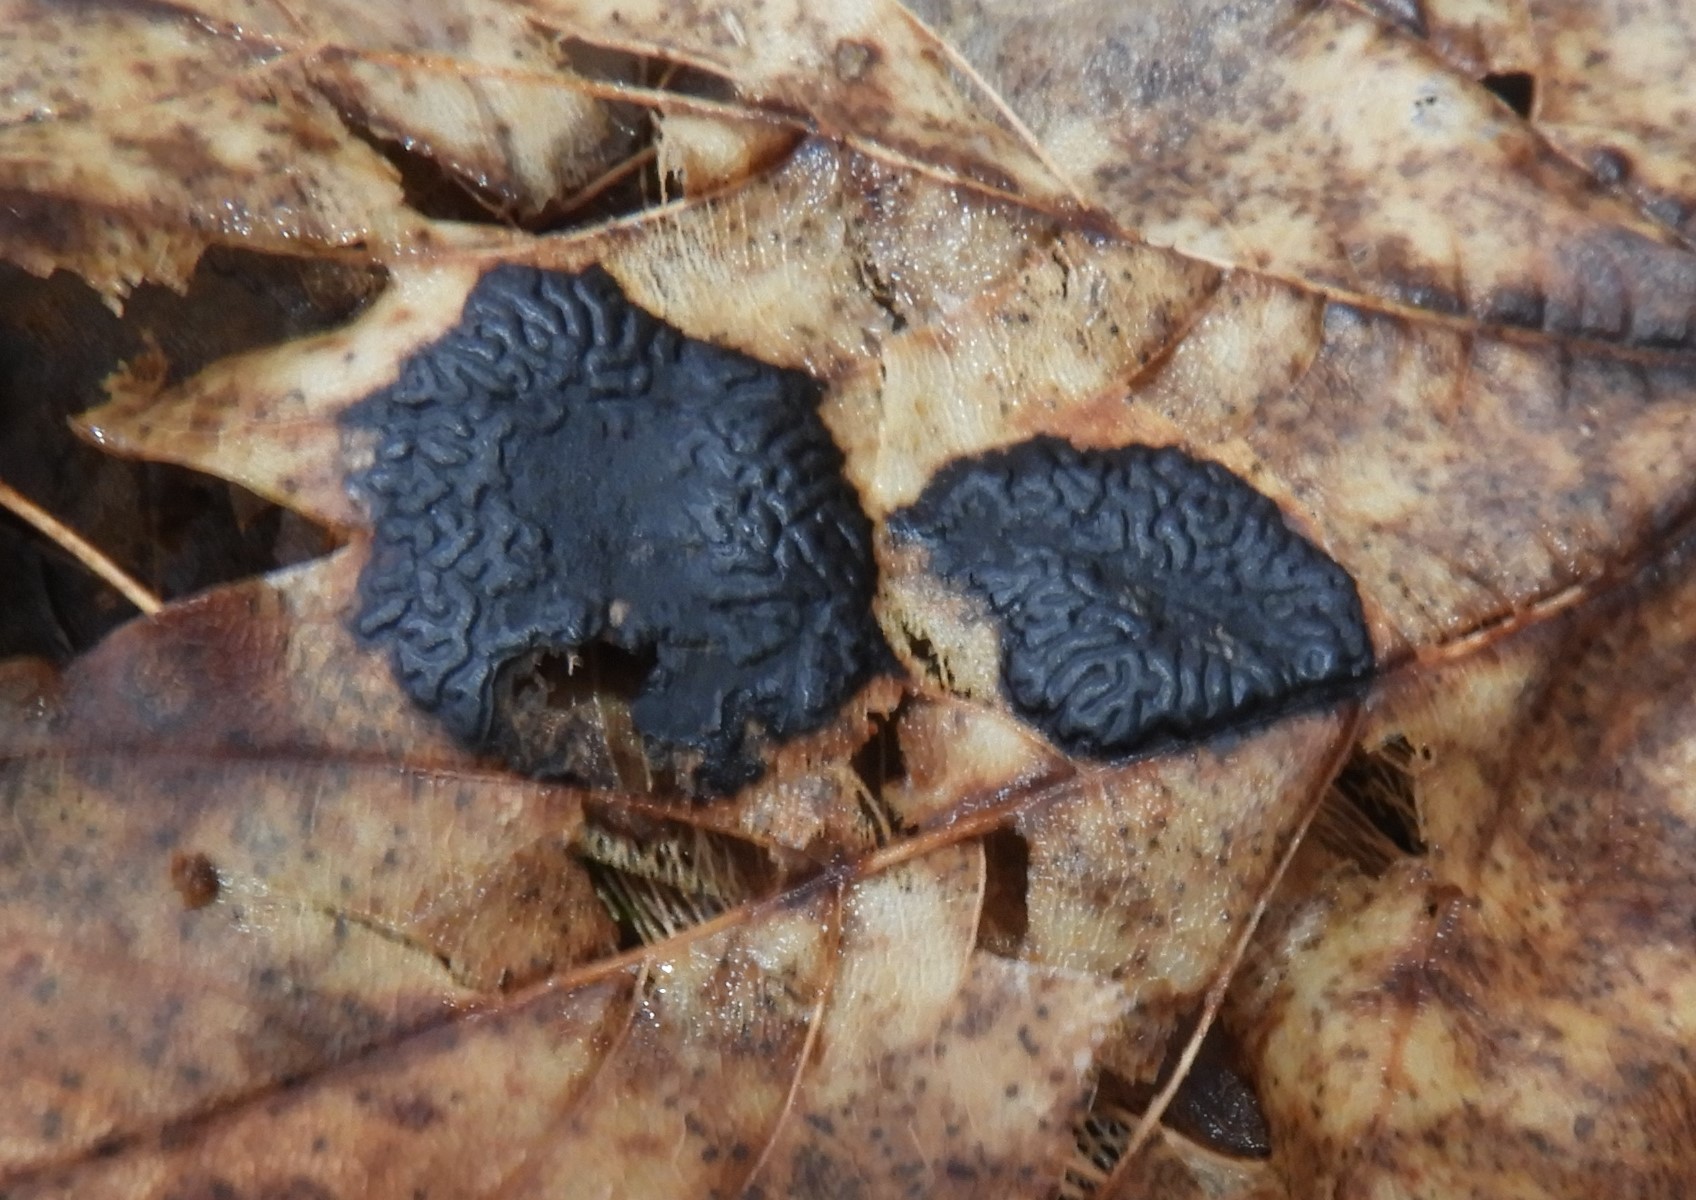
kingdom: Fungi
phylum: Ascomycota
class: Leotiomycetes
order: Rhytismatales
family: Rhytismataceae
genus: Rhytisma
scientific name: Rhytisma acerinum
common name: ahorn-rynkeplet
